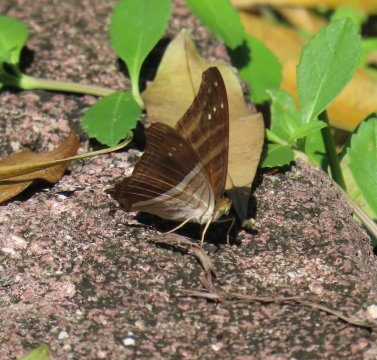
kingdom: Animalia
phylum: Arthropoda
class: Insecta
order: Lepidoptera
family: Nymphalidae
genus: Marpesia
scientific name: Marpesia chiron
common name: Many-banded Daggerwing
